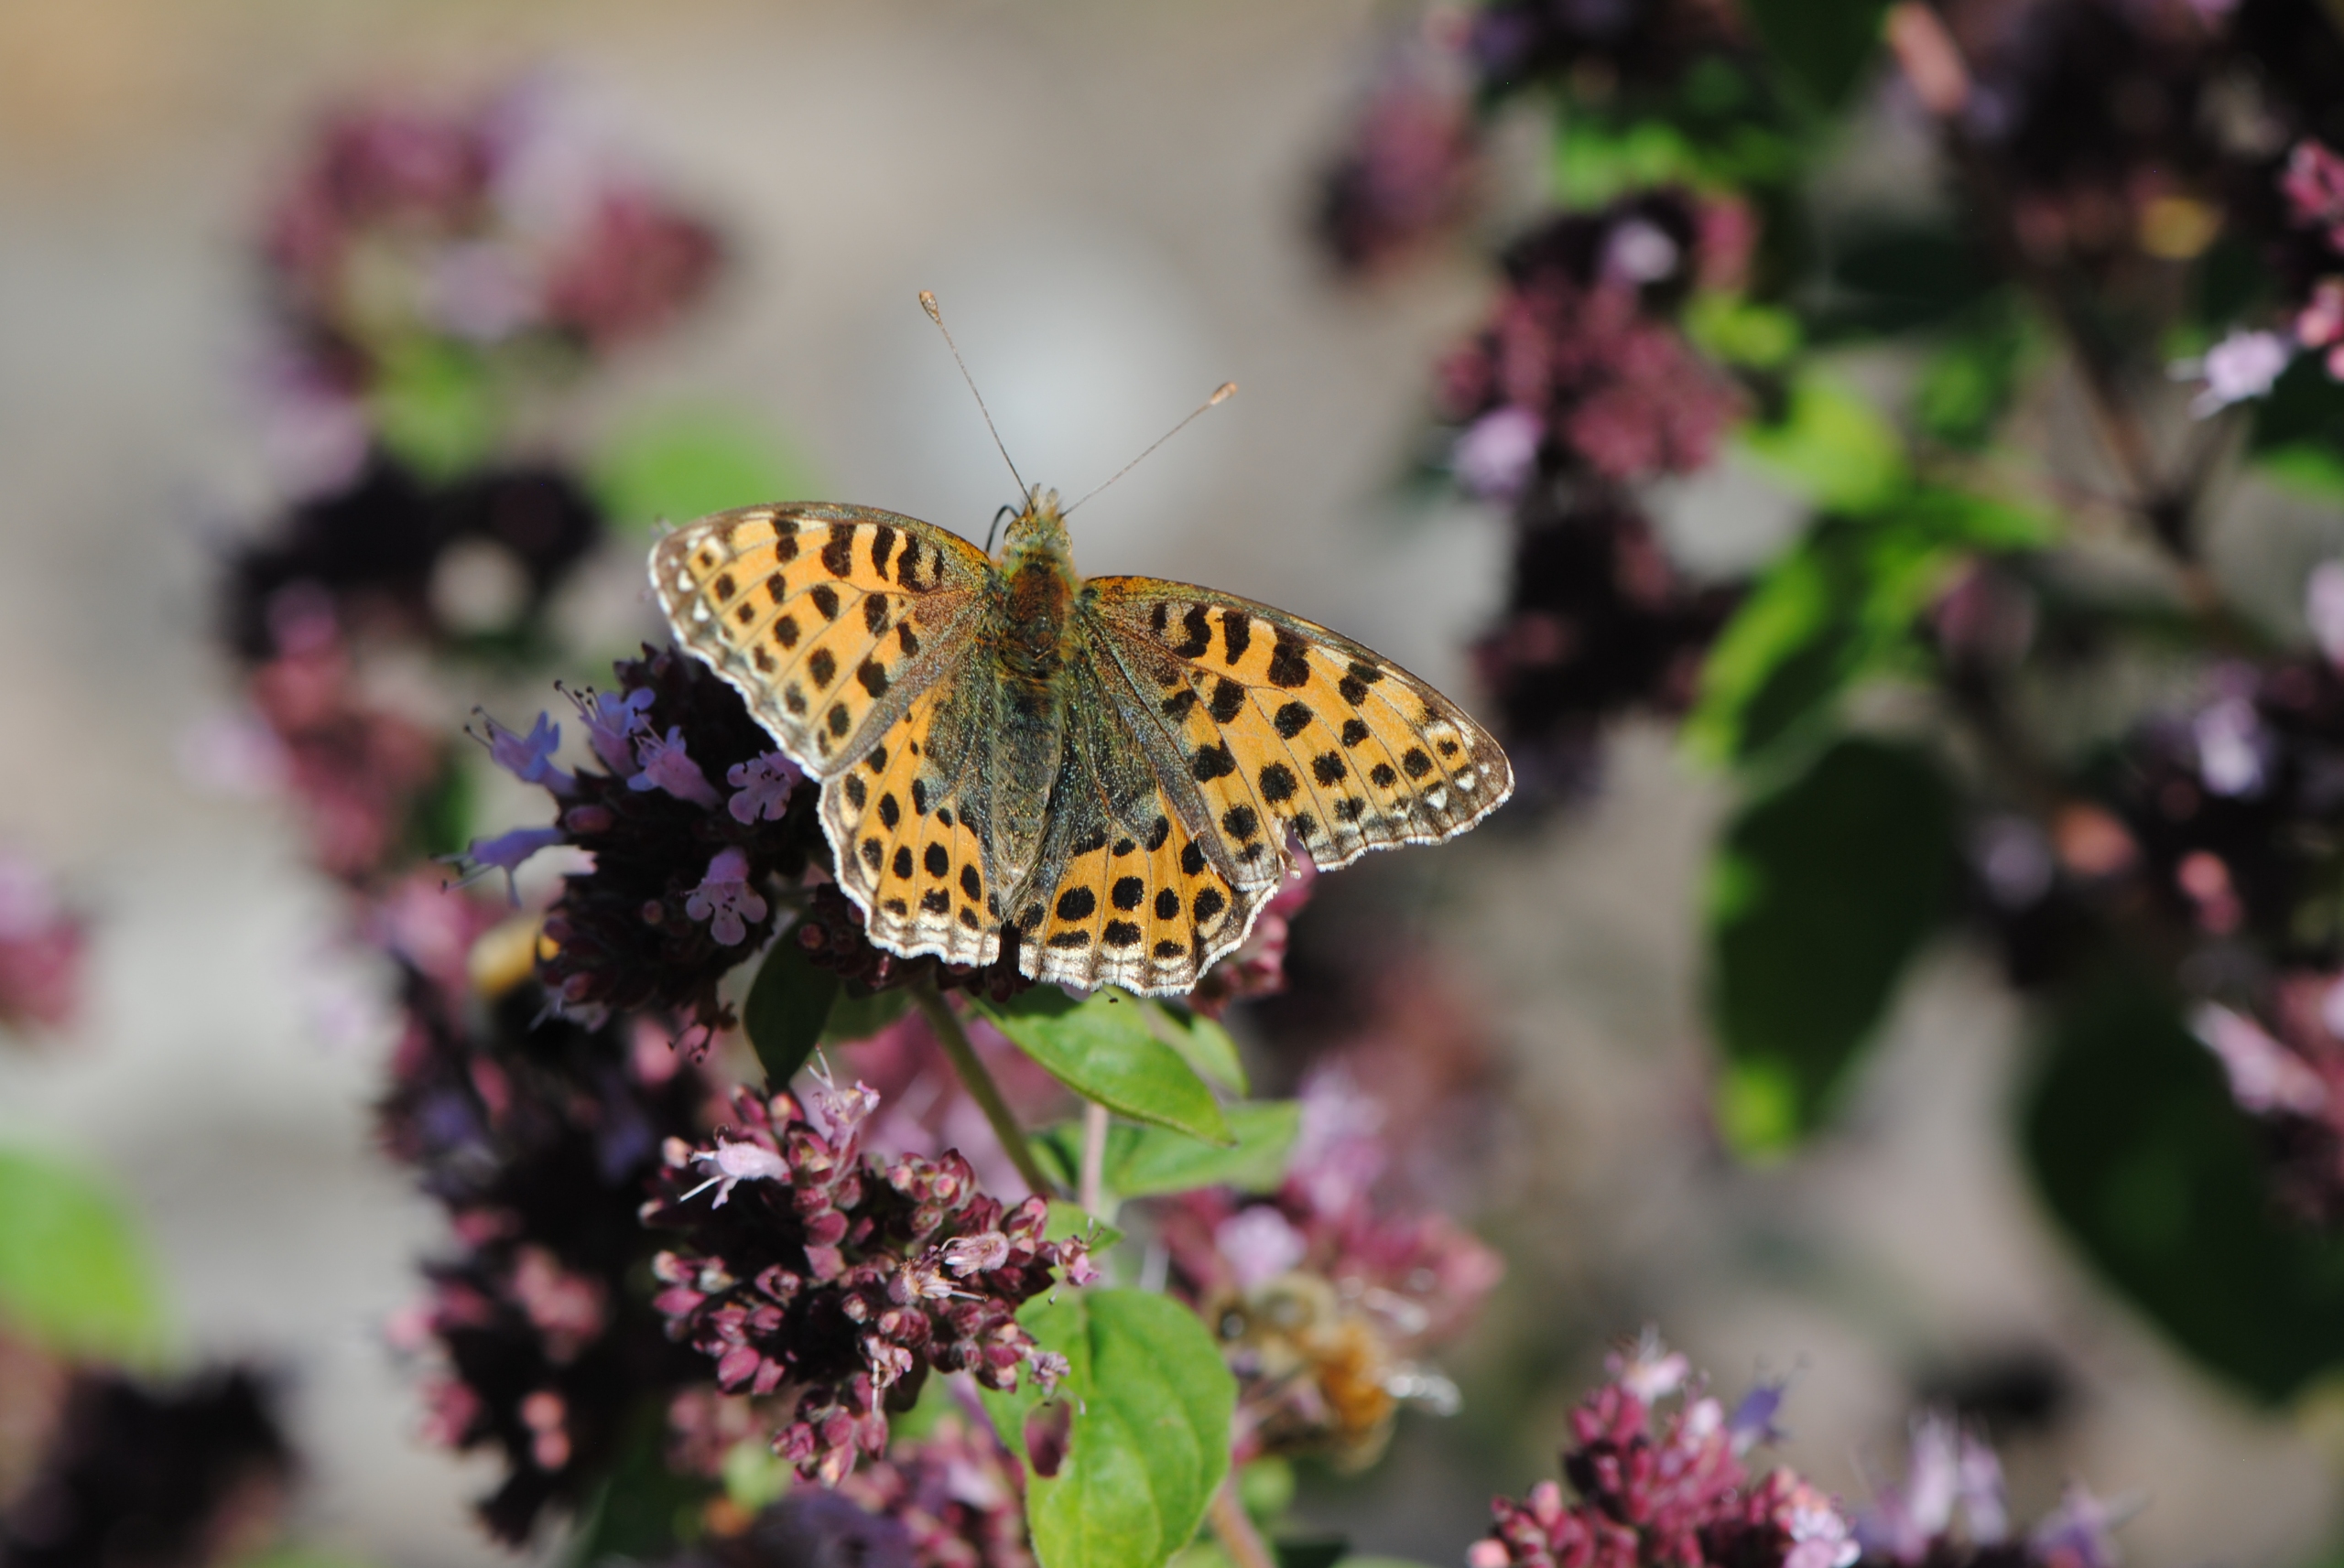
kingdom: Animalia
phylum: Arthropoda
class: Insecta
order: Lepidoptera
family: Nymphalidae
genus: Issoria
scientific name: Issoria lathonia
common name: Storplettet perlemorsommerfugl
